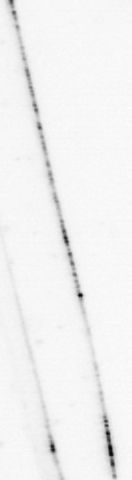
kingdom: Animalia
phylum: Arthropoda
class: Copepoda
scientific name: Copepoda
